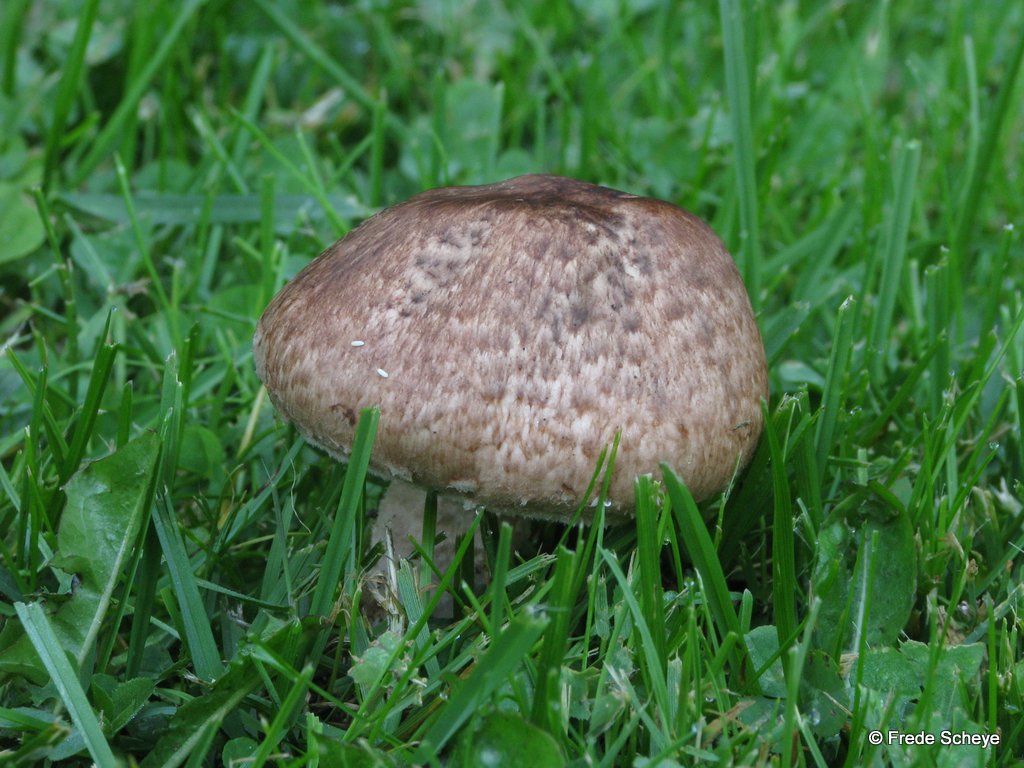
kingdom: Fungi
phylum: Basidiomycota
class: Agaricomycetes
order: Agaricales
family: Agaricaceae
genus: Agaricus
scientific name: Agaricus lanipes
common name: uldstokket champignon
